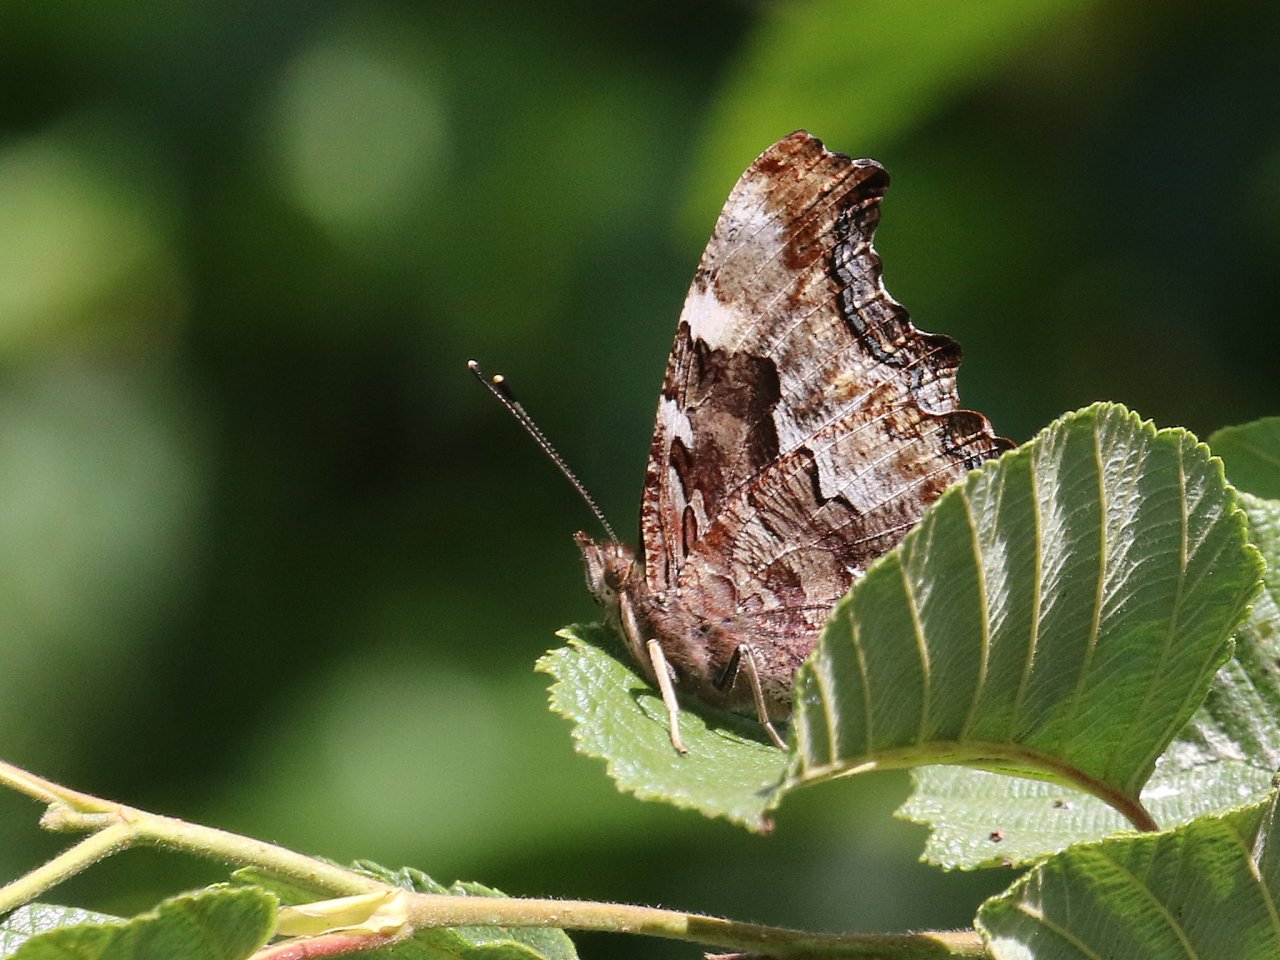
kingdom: Animalia
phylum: Arthropoda
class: Insecta
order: Lepidoptera
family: Nymphalidae
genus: Polygonia
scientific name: Polygonia vaualbum
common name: Compton Tortoiseshell
